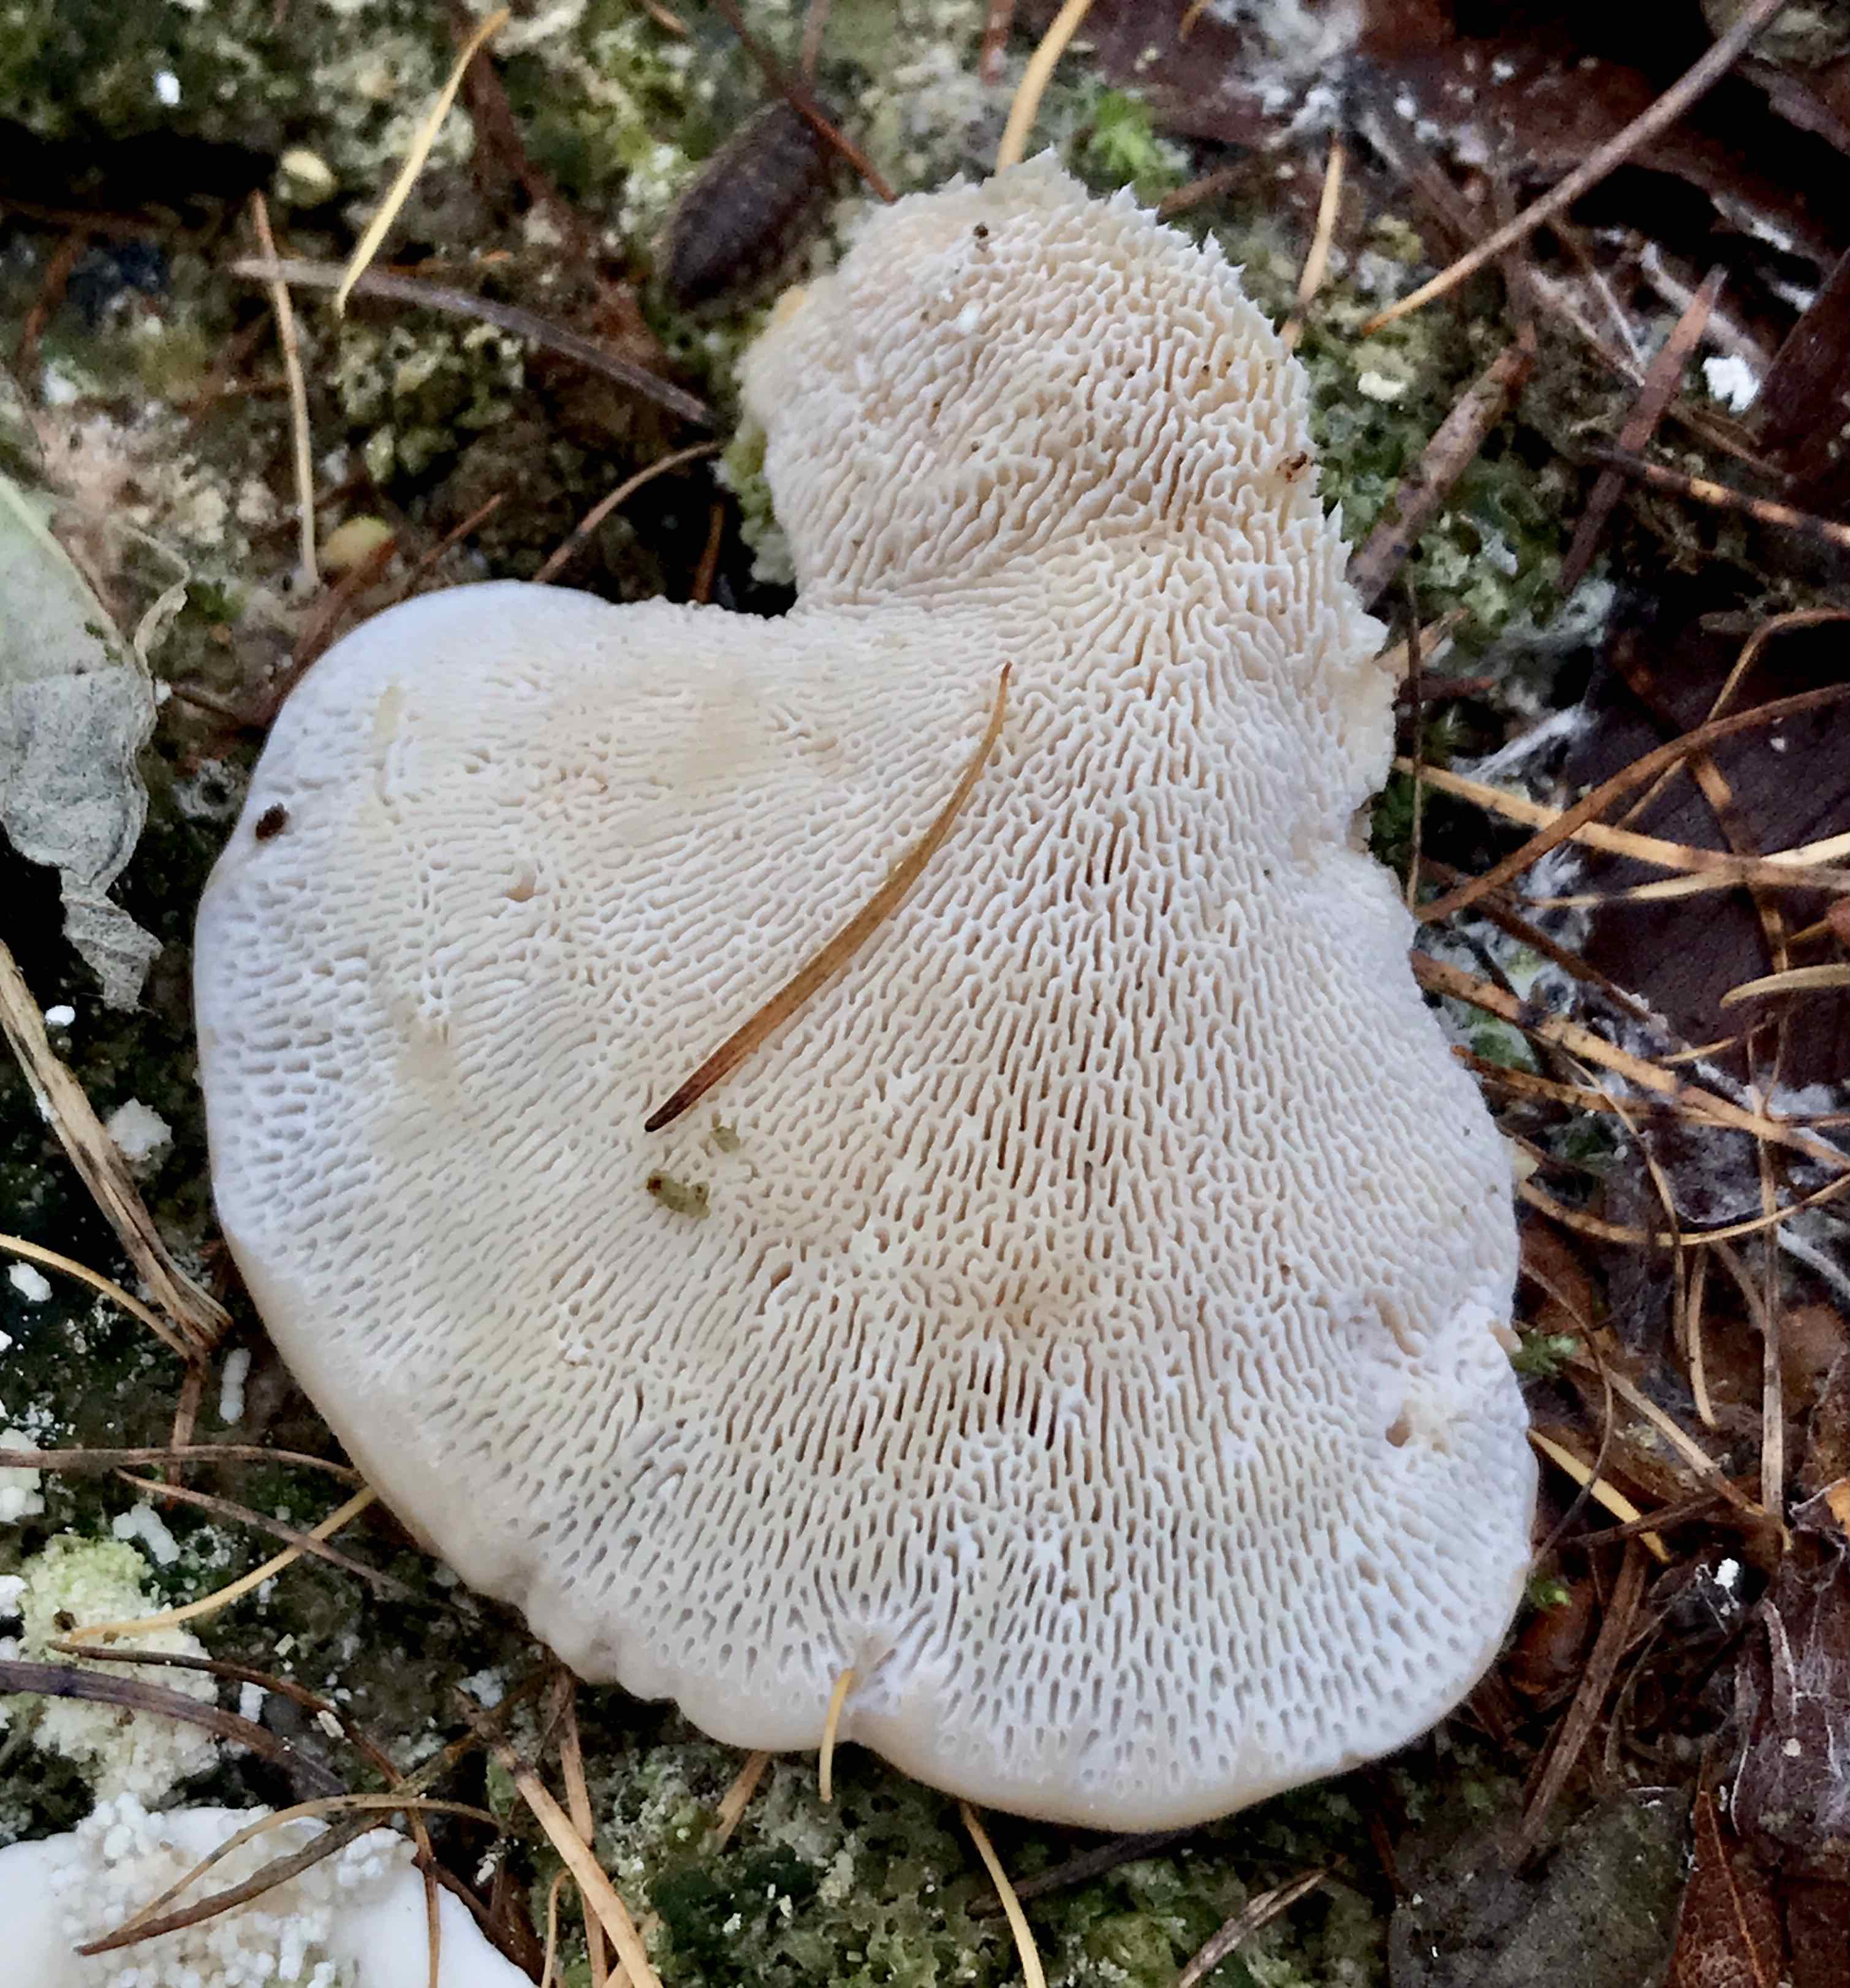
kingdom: Fungi
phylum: Basidiomycota
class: Agaricomycetes
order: Polyporales
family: Polyporaceae
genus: Trametes
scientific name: Trametes gibbosa
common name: puklet læderporesvamp
